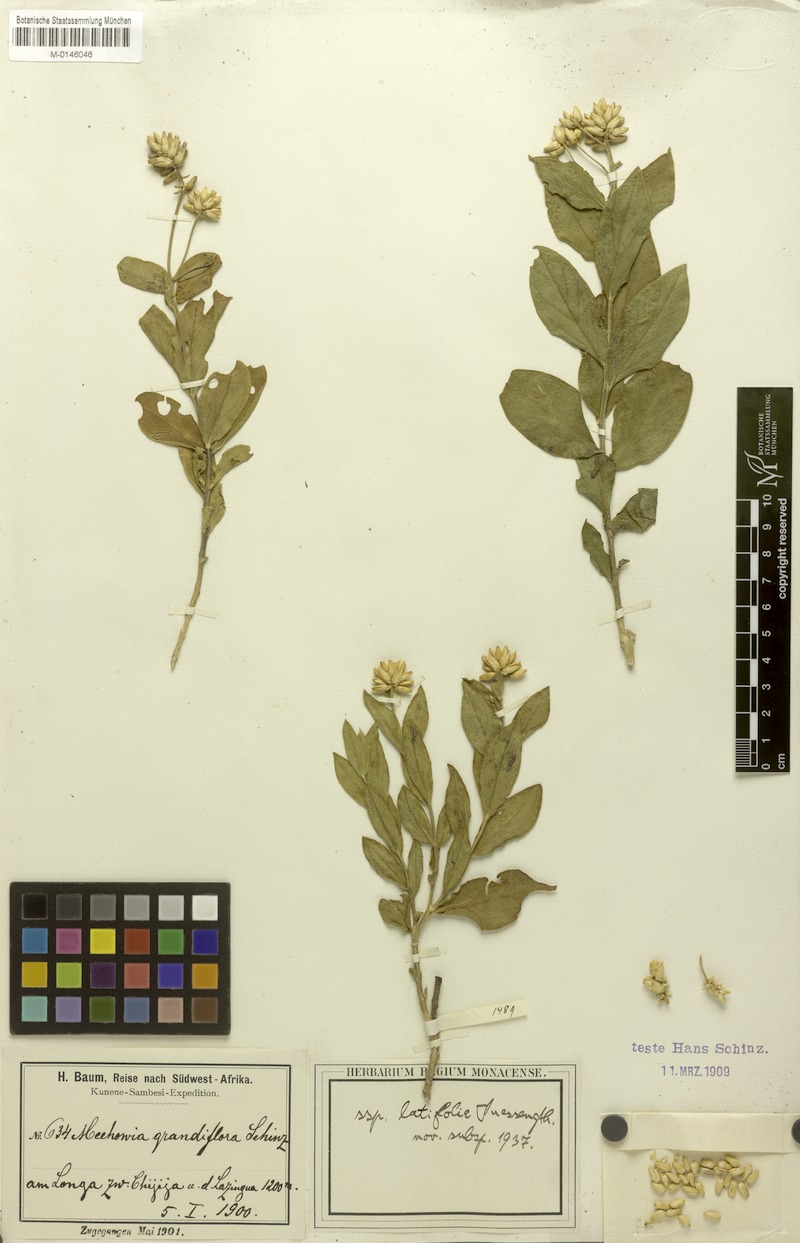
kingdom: Plantae
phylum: Tracheophyta
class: Magnoliopsida
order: Caryophyllales
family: Amaranthaceae
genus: Mechowia
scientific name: Mechowia grandiflora
